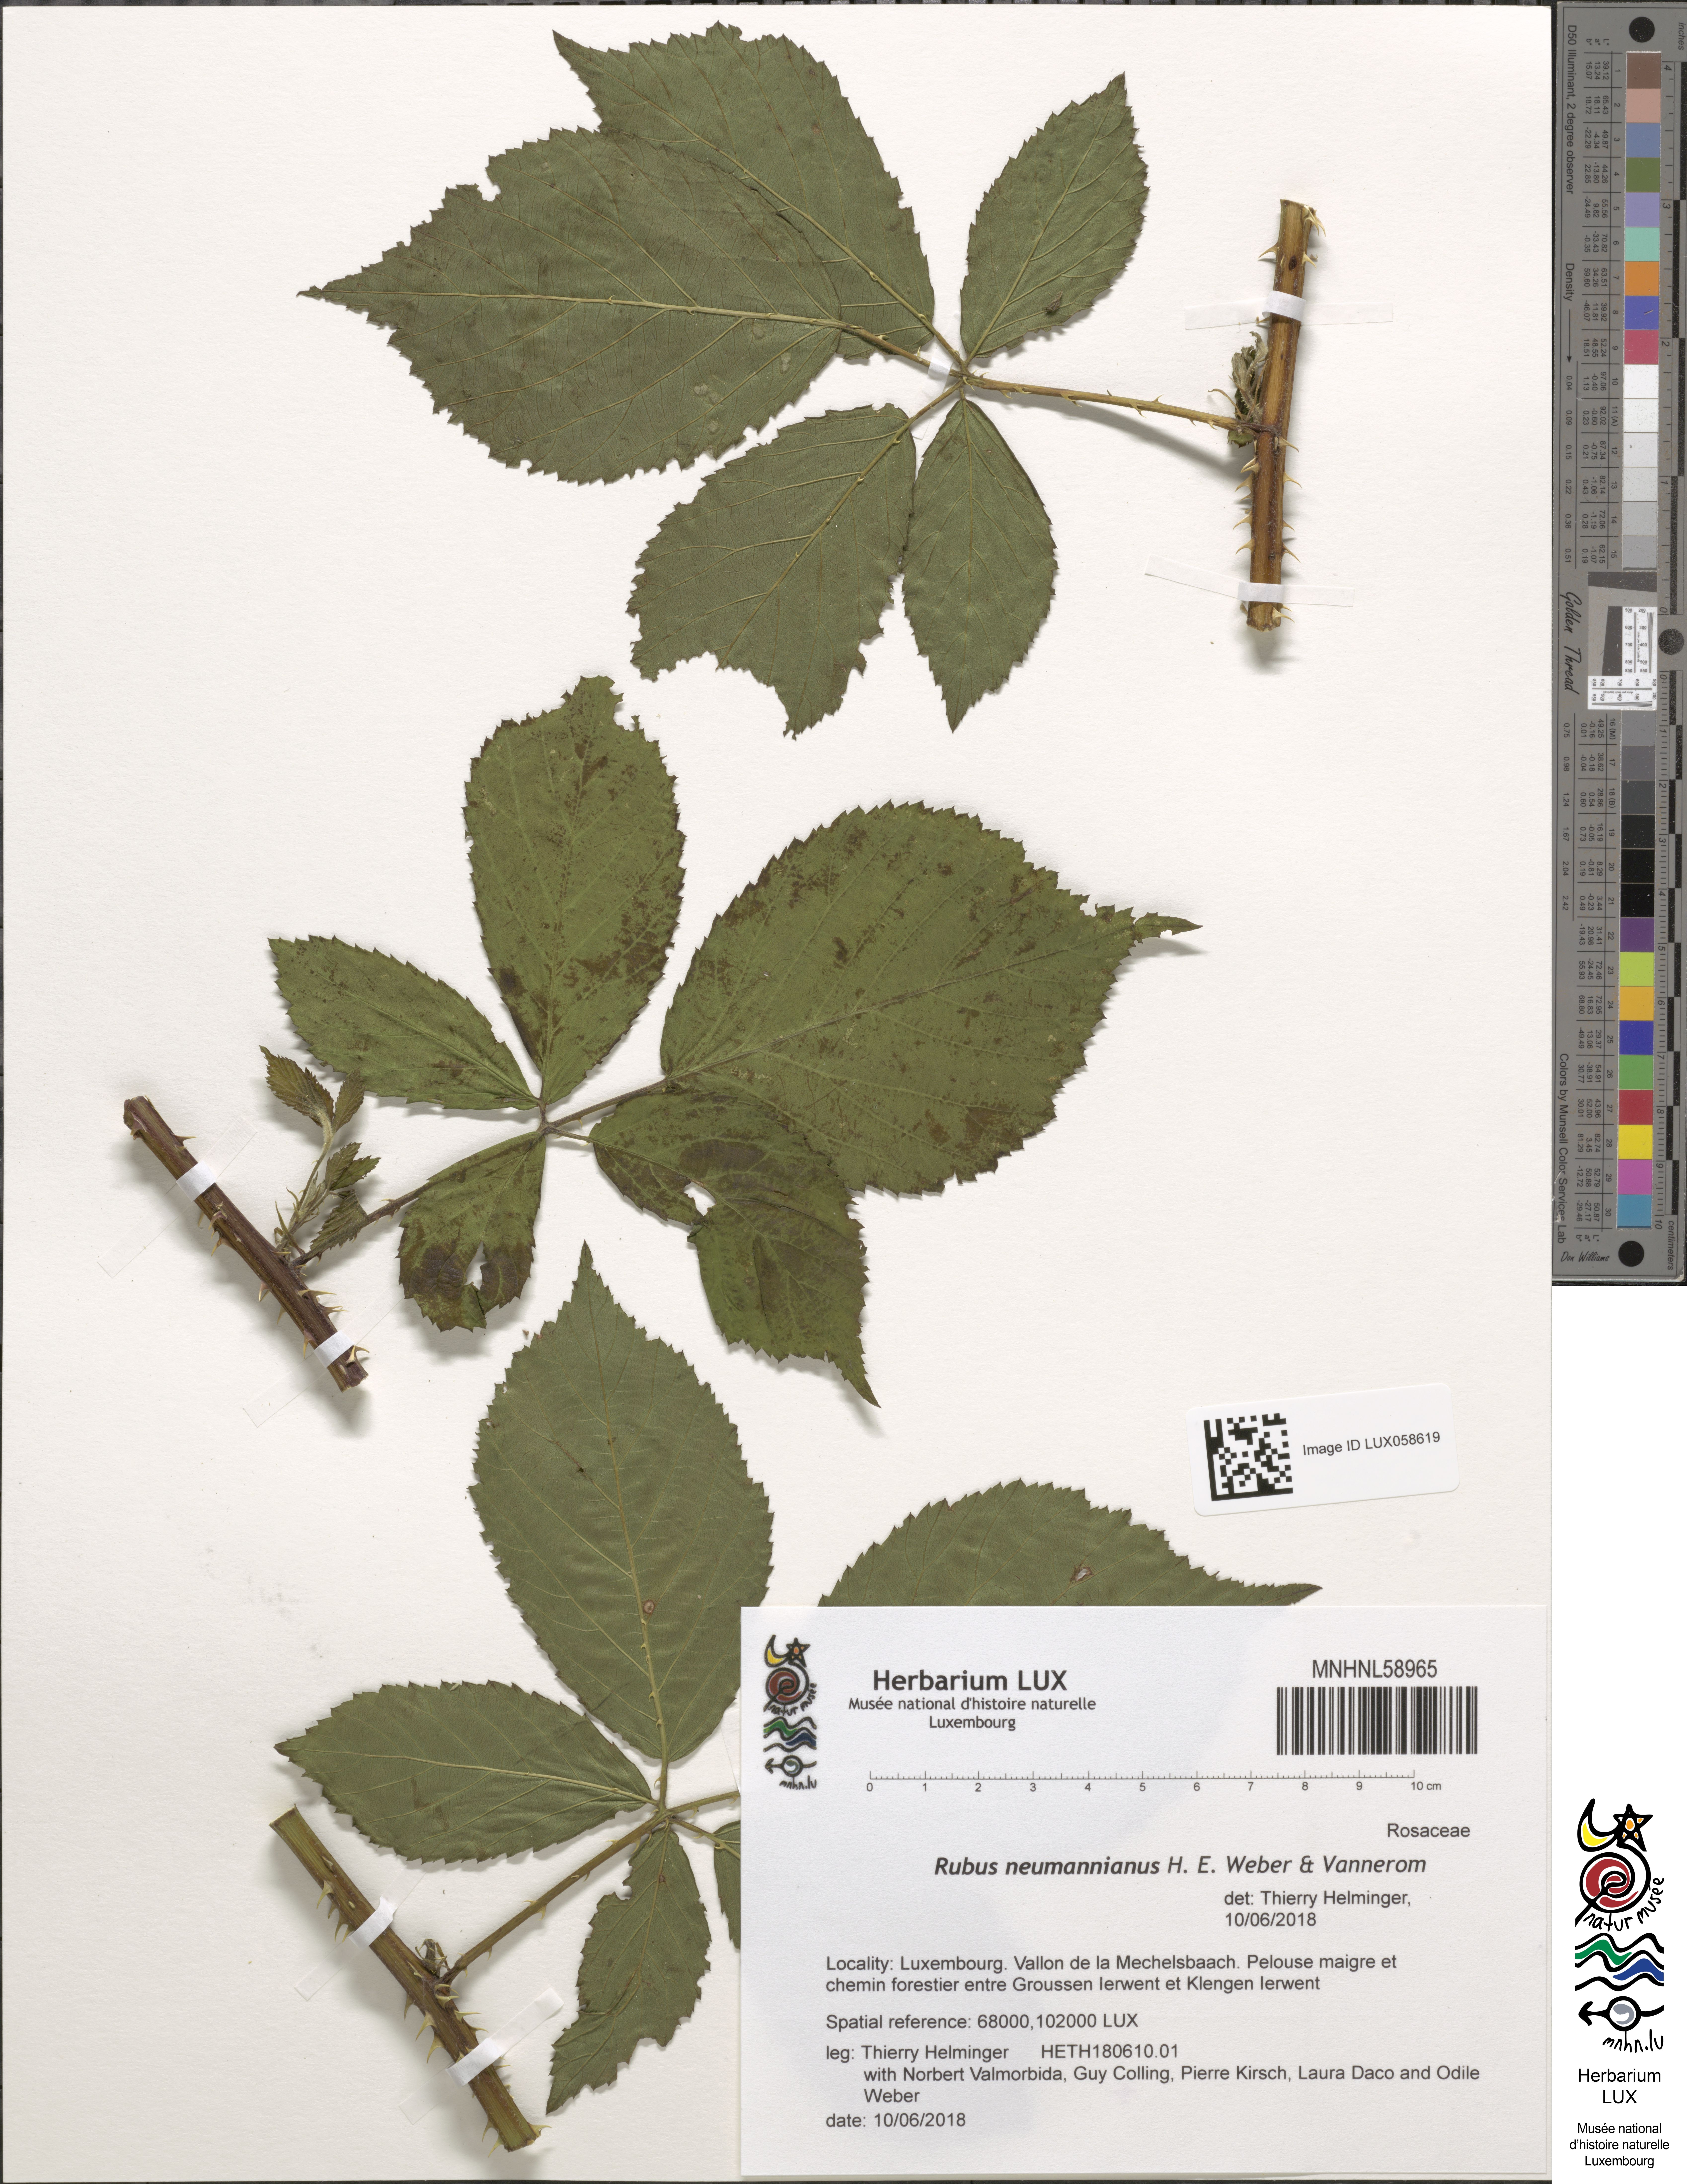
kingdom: Plantae
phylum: Tracheophyta
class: Magnoliopsida
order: Rosales
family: Rosaceae
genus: Rubus
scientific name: Rubus favonii
